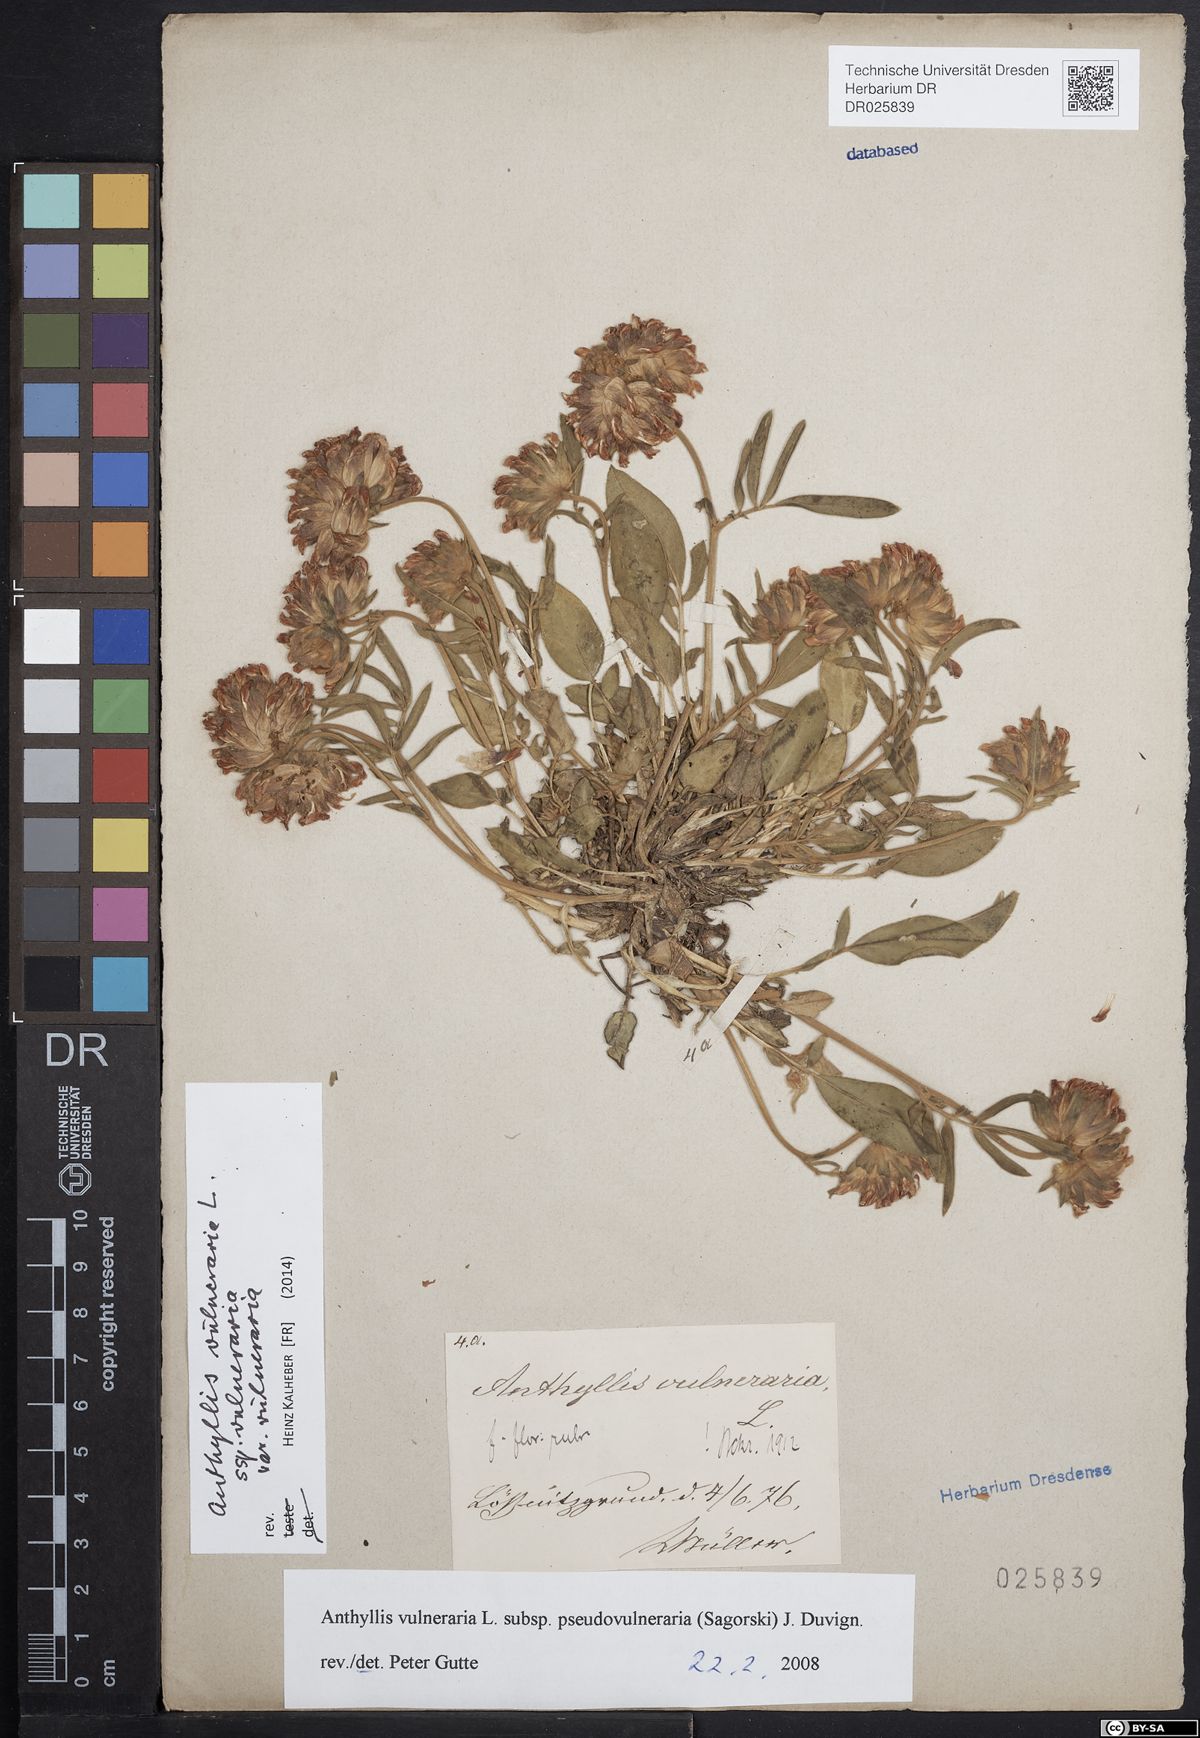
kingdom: Plantae
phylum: Tracheophyta
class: Magnoliopsida
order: Fabales
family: Fabaceae
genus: Anthyllis
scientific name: Anthyllis vulneraria
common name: Kidney vetch
